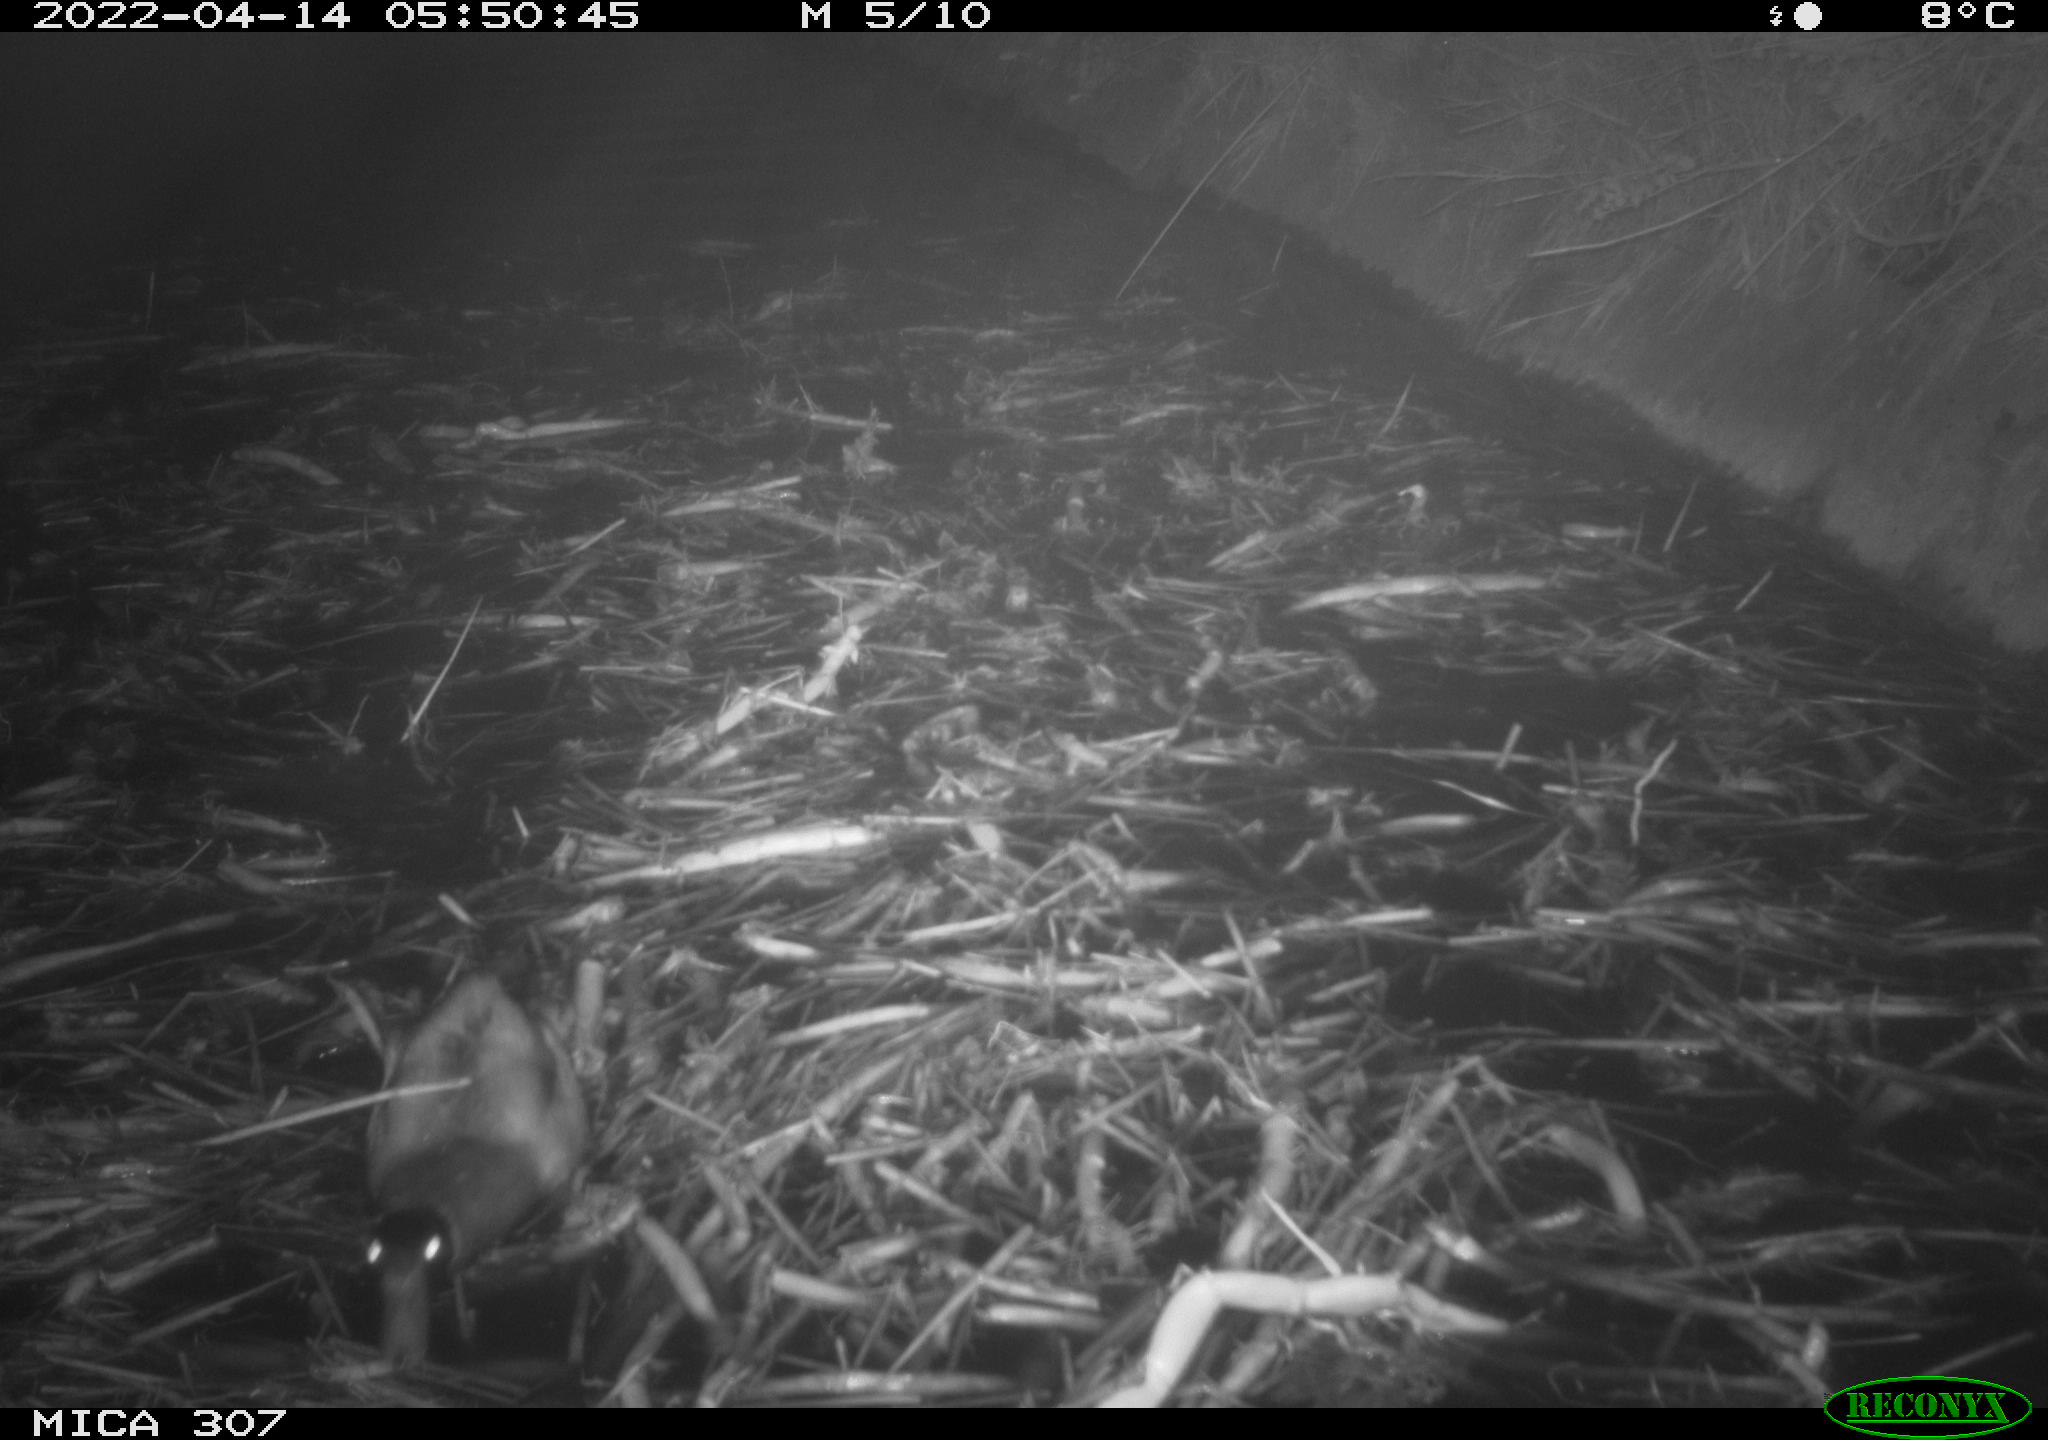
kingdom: Animalia
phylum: Chordata
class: Aves
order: Anseriformes
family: Anatidae
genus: Anas
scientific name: Anas platyrhynchos
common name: Mallard
